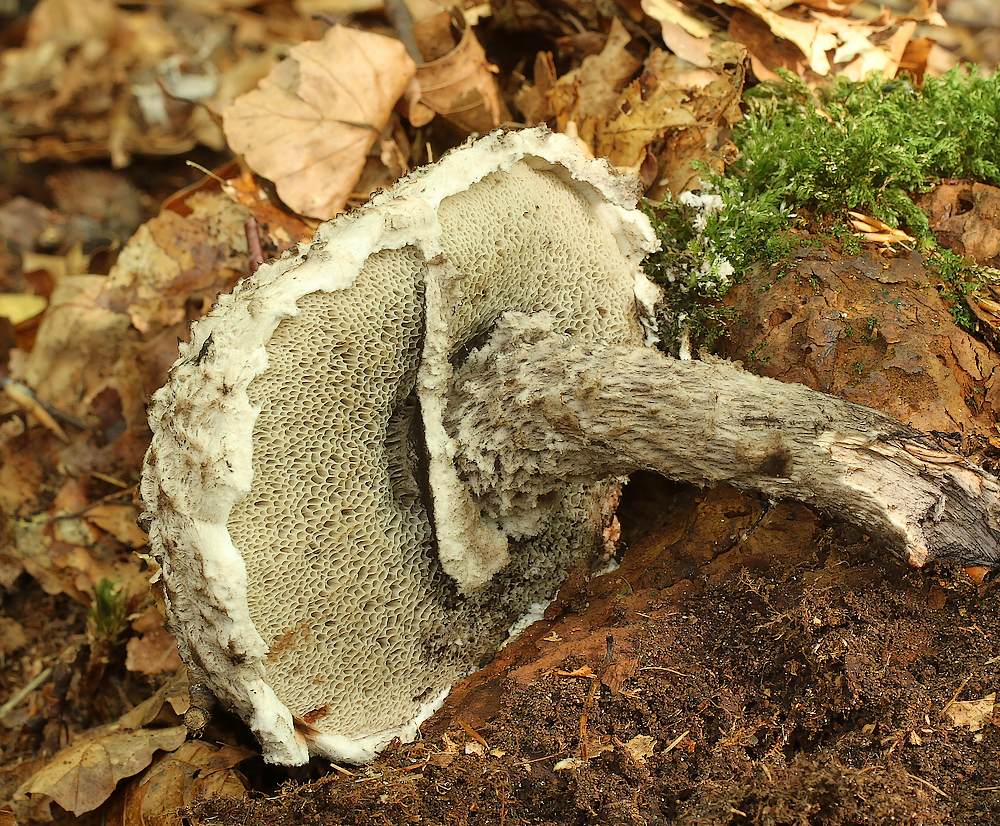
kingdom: Fungi
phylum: Basidiomycota
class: Agaricomycetes
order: Boletales
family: Boletaceae
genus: Strobilomyces
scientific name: Strobilomyces strobilaceus
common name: koglerørhat
